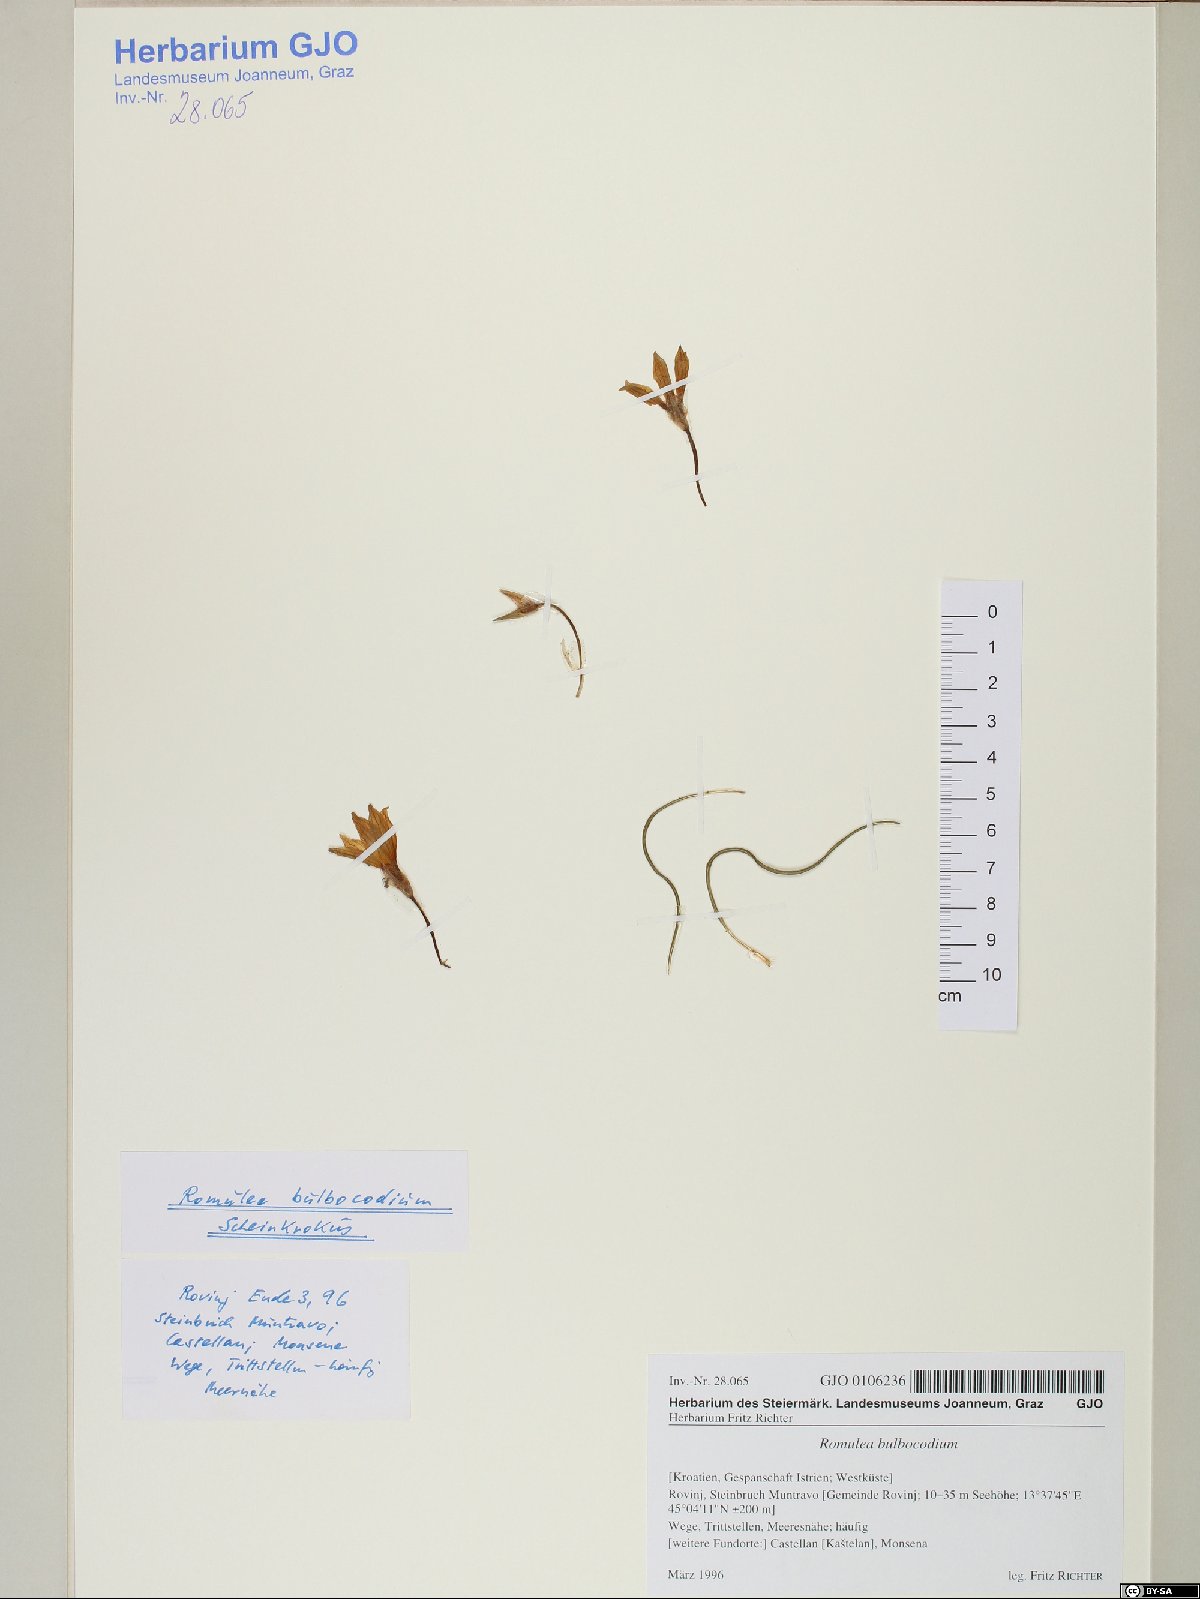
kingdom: Plantae
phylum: Tracheophyta
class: Liliopsida
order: Asparagales
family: Iridaceae
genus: Romulea
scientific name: Romulea bulbocodium
